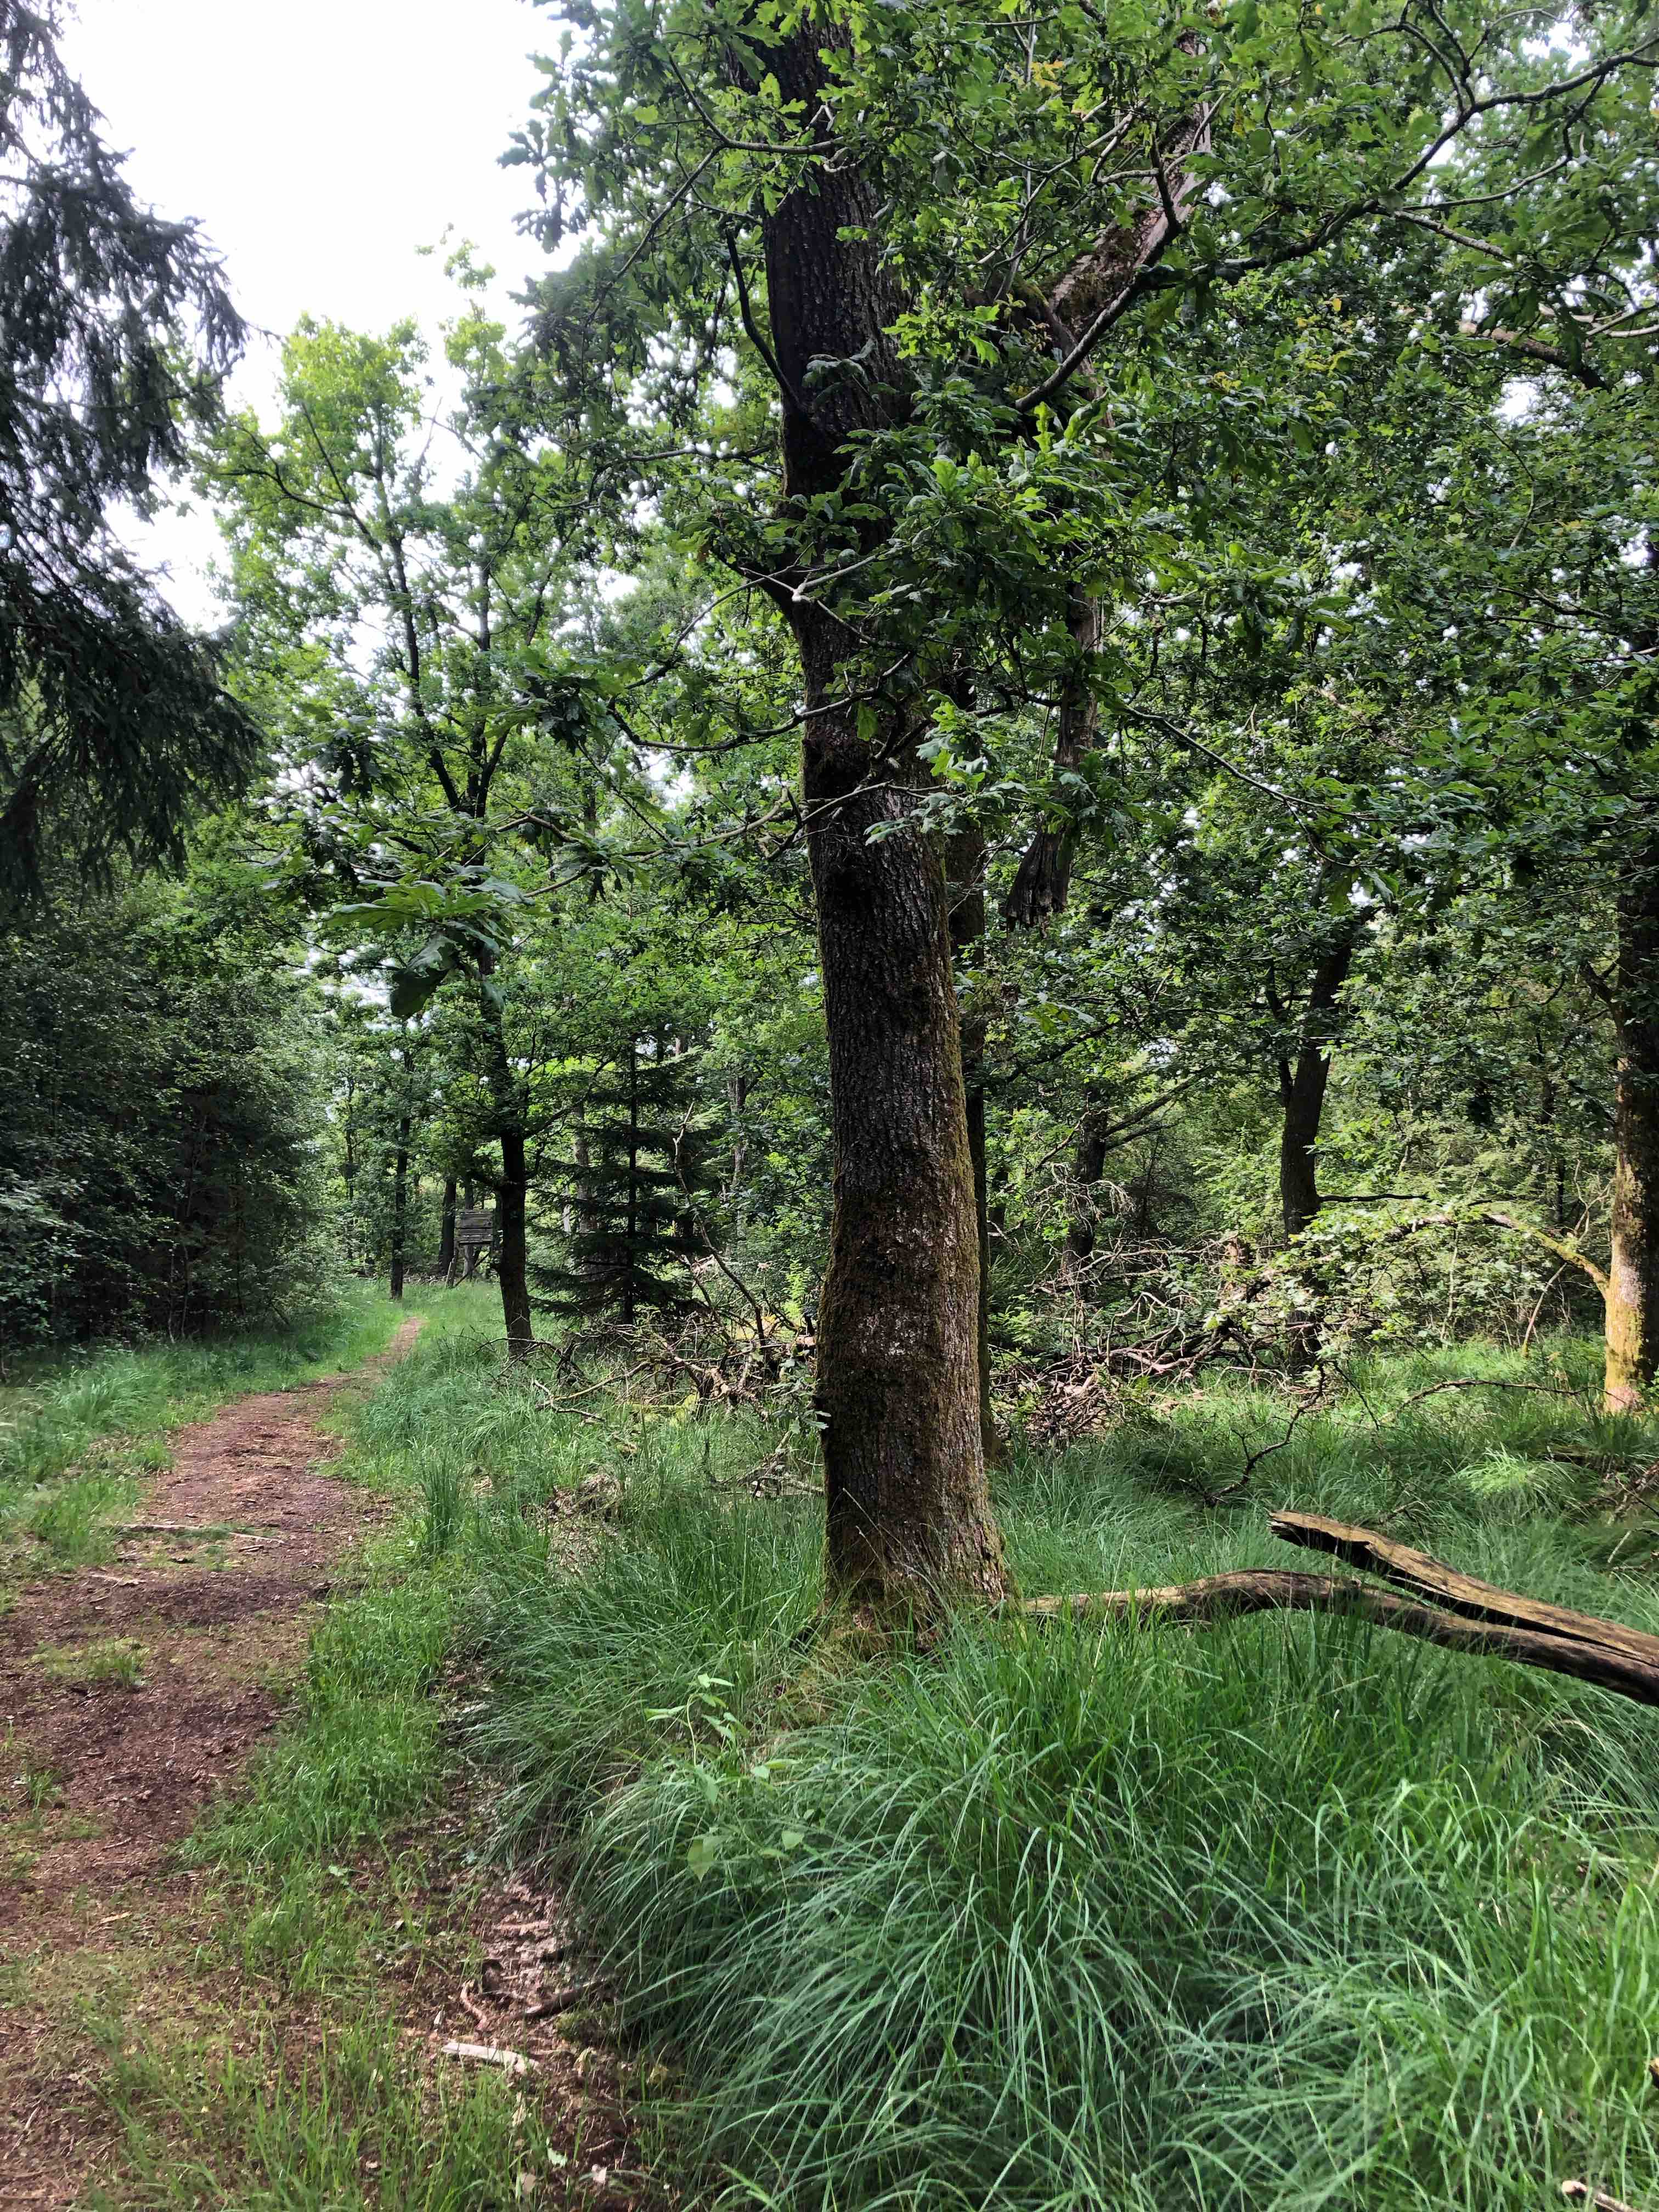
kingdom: Fungi
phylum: Basidiomycota
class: Agaricomycetes
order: Hymenochaetales
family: Rickenellaceae
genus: Rickenella
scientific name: Rickenella fibula
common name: orange mosnavlehat
